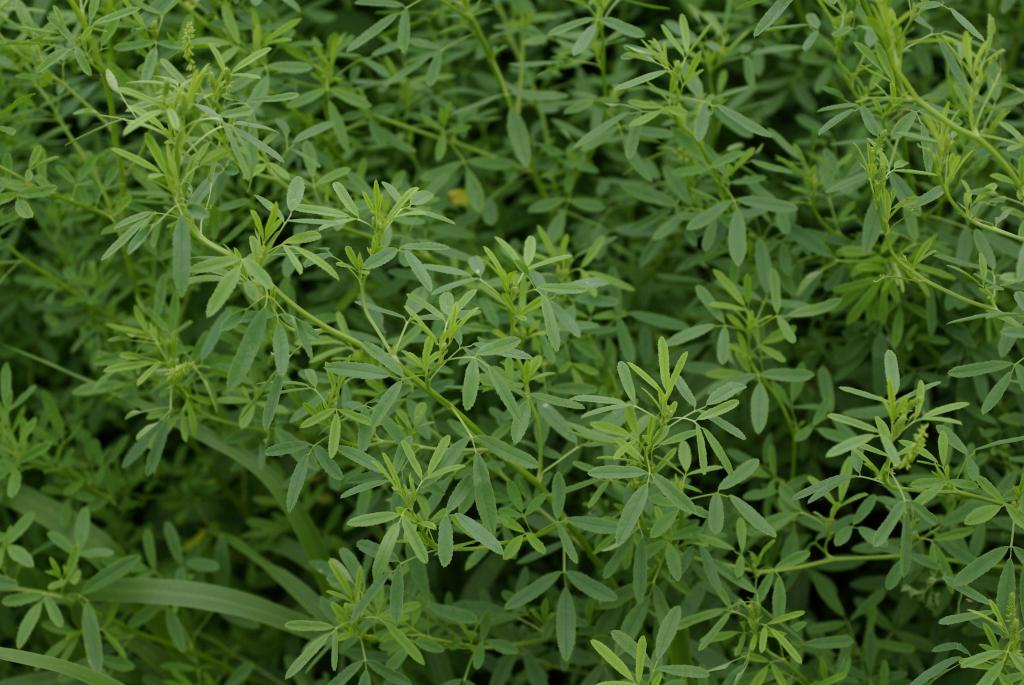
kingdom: Plantae
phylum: Tracheophyta
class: Magnoliopsida
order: Fabales
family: Fabaceae
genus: Melilotus
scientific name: Melilotus indicus
